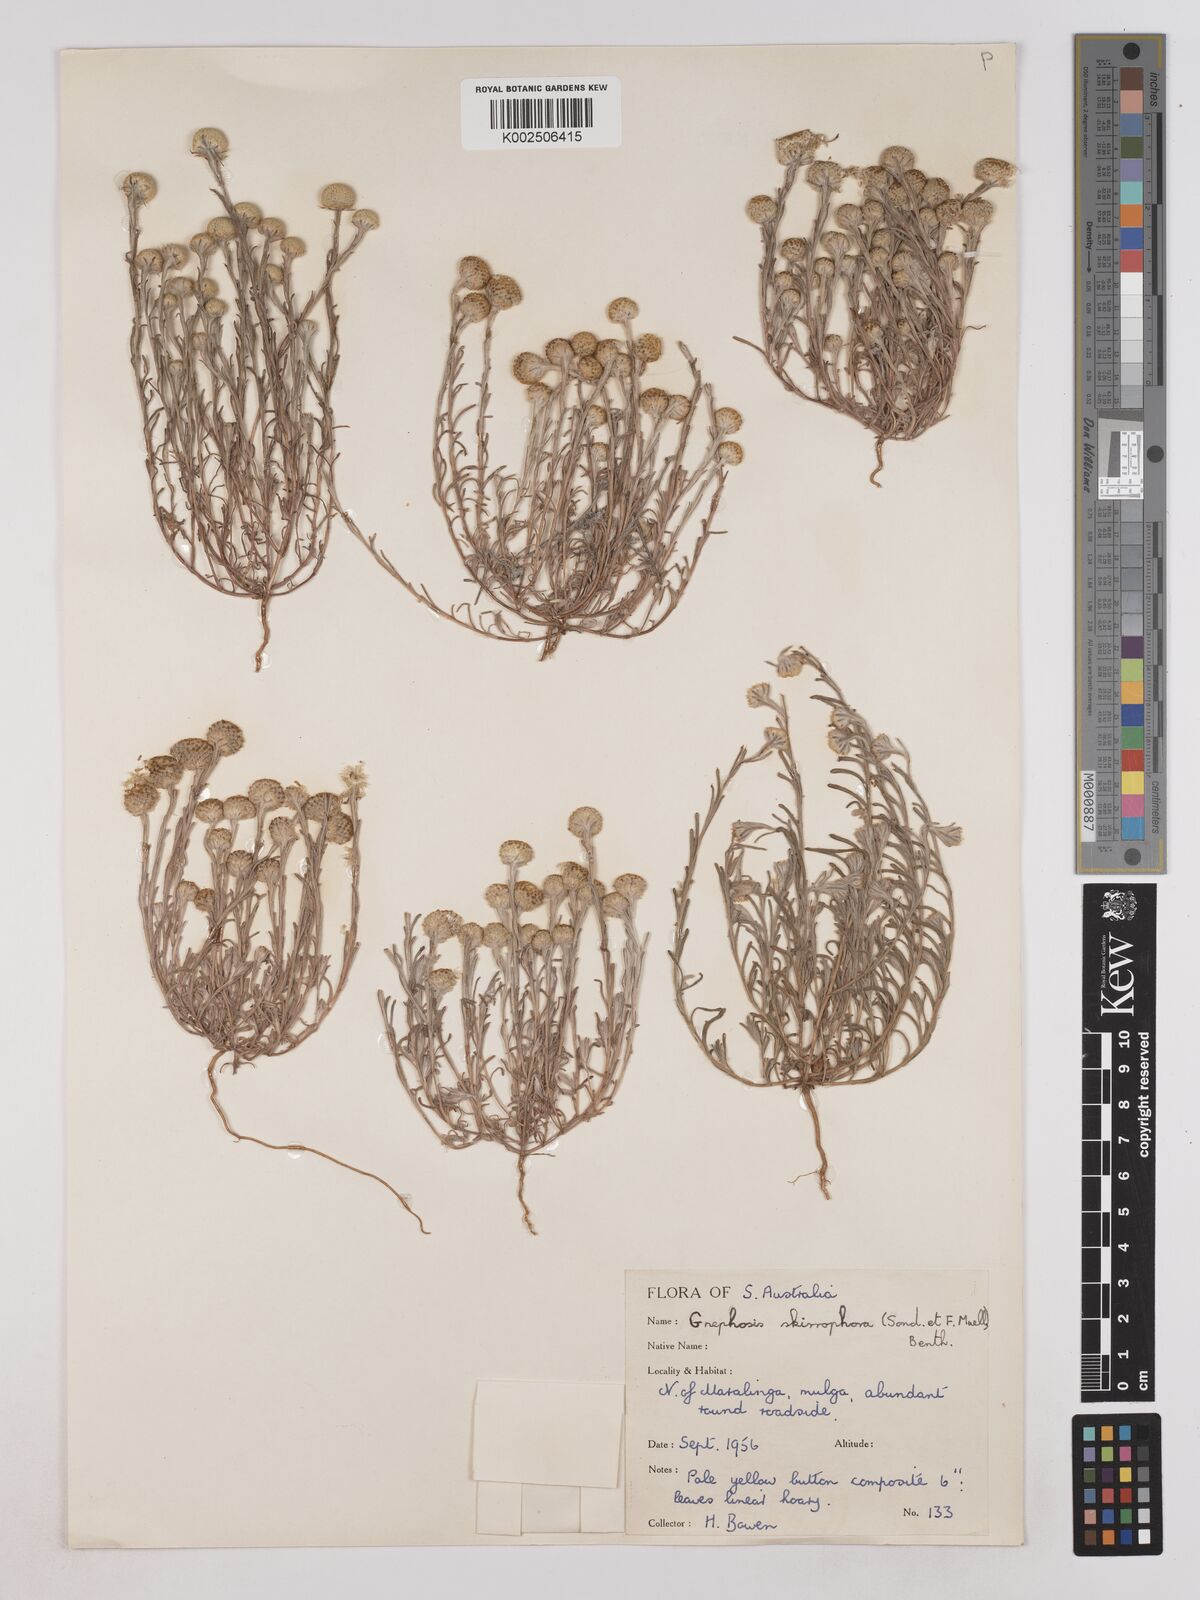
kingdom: Plantae
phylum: Tracheophyta
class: Magnoliopsida
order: Asterales
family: Asteraceae
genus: Trichanthodium
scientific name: Trichanthodium skirrophorum
